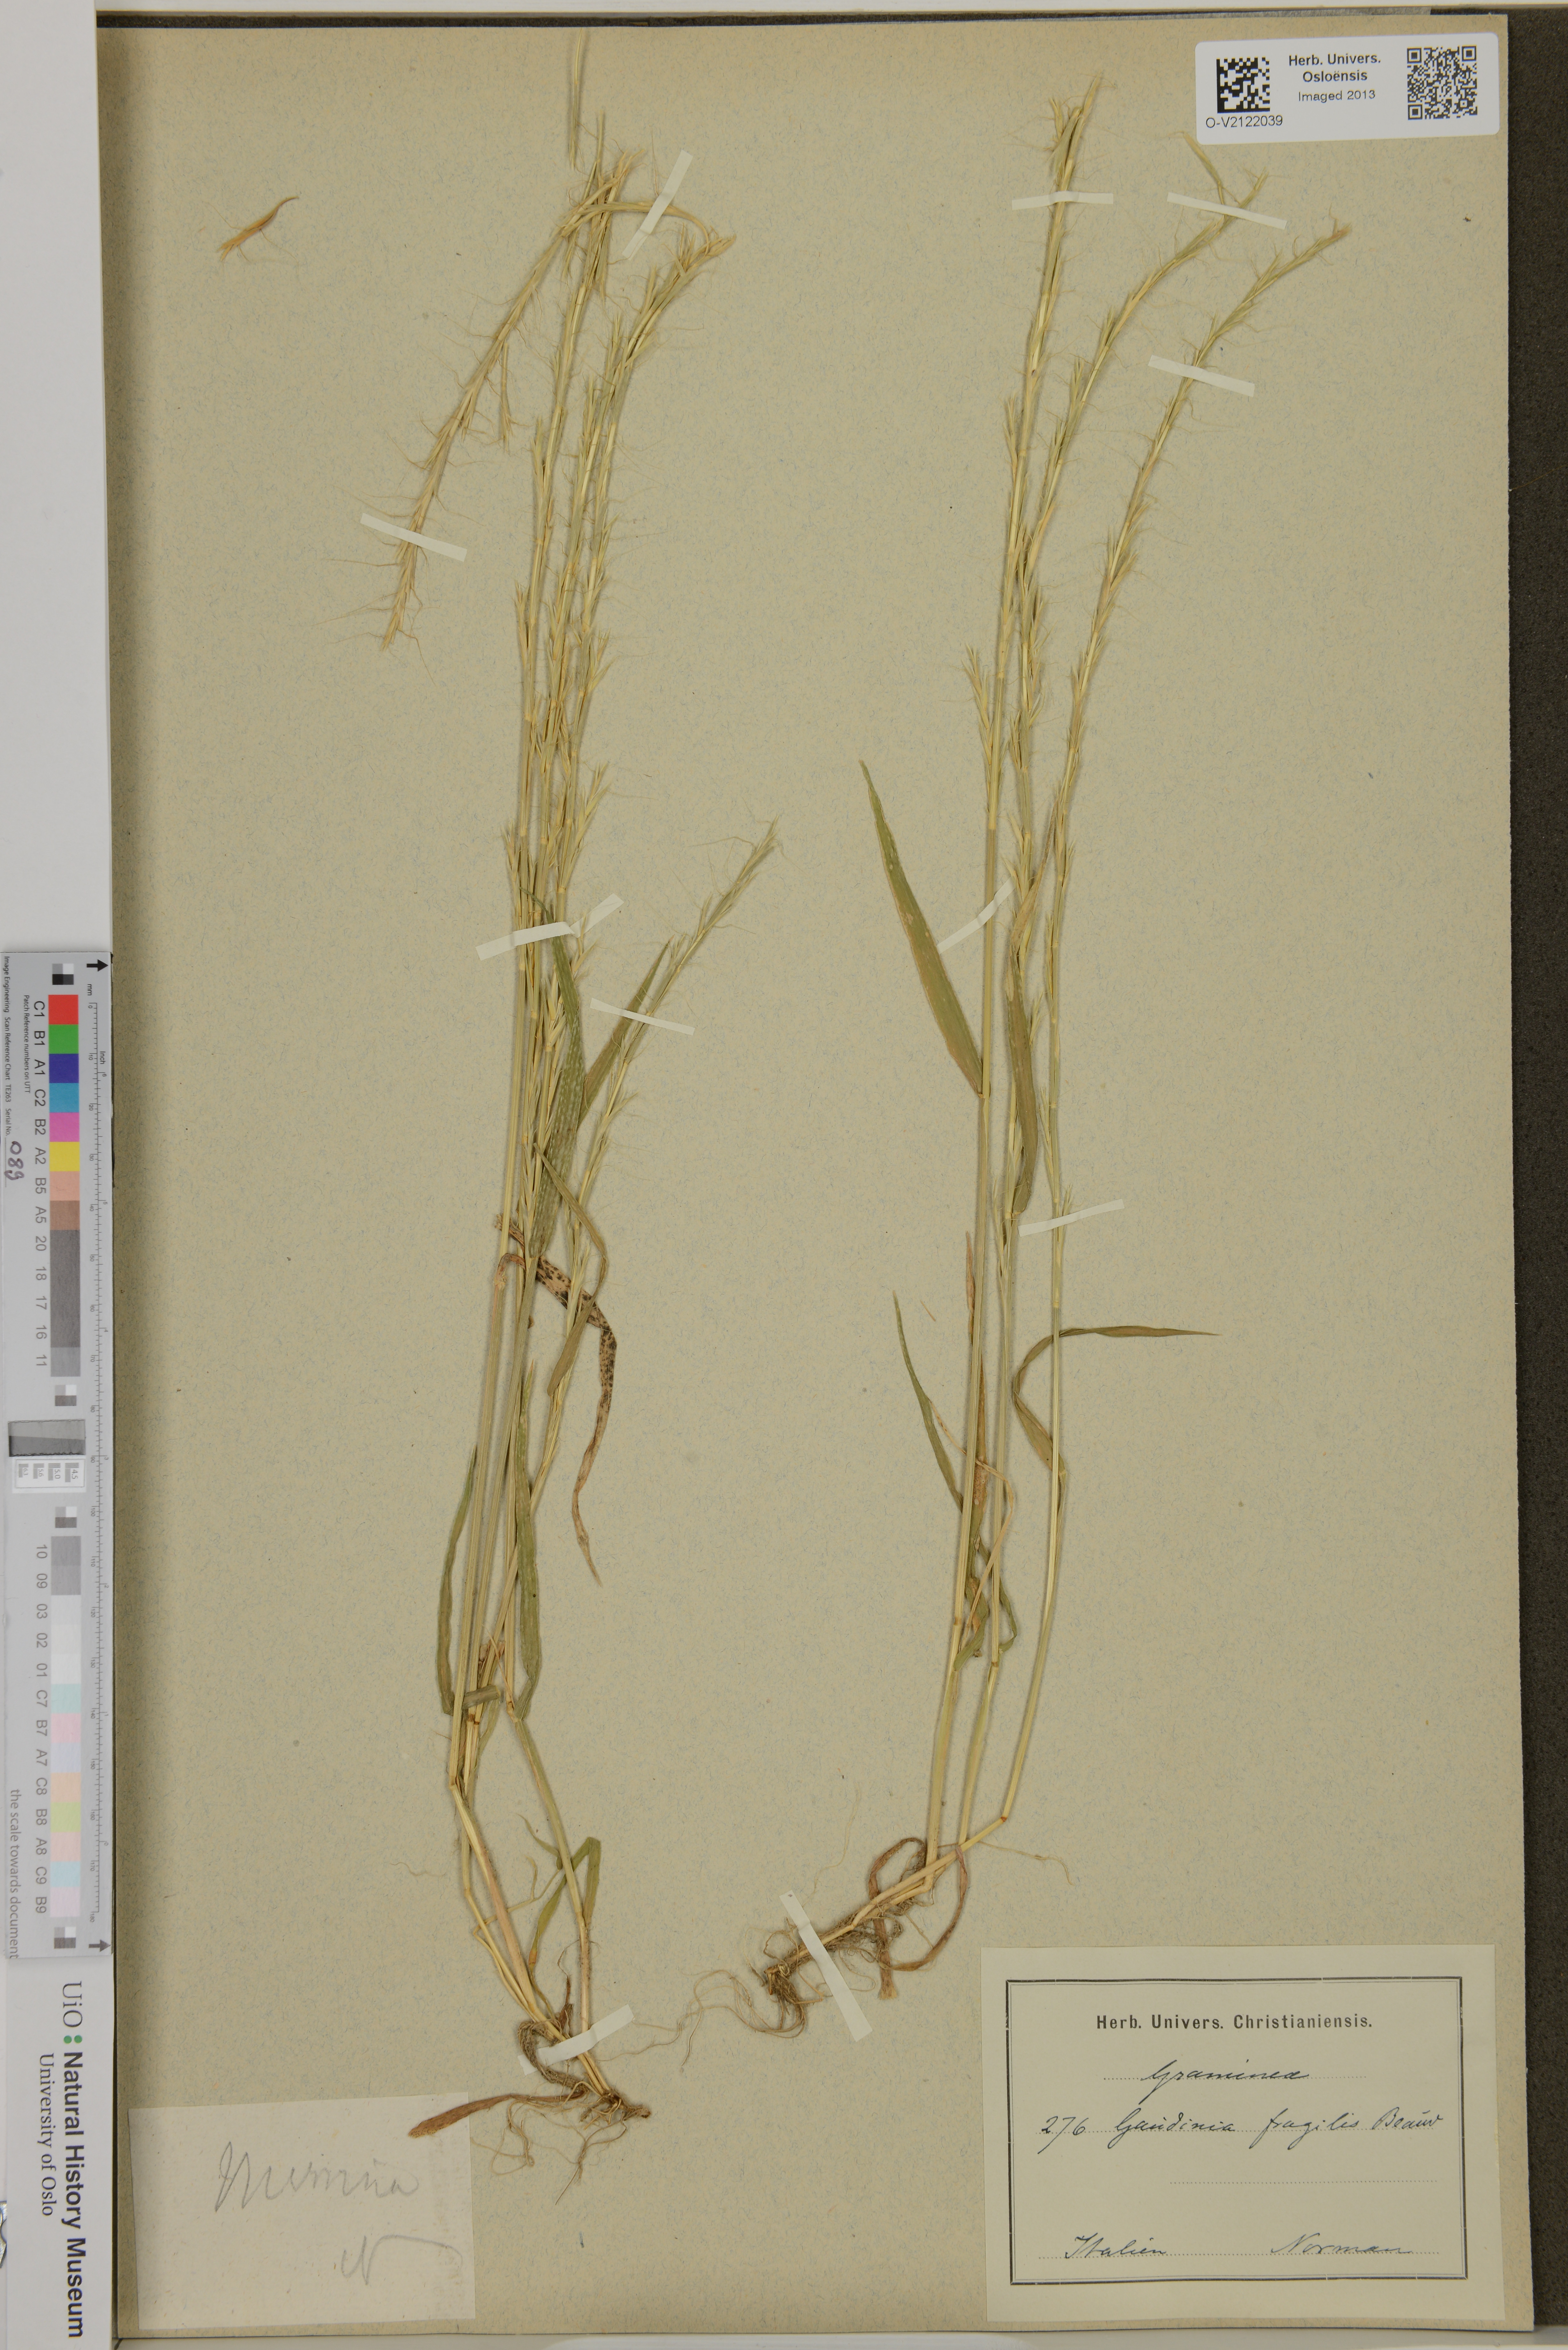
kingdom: Plantae
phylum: Tracheophyta
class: Liliopsida
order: Poales
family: Poaceae
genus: Gaudinia
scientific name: Gaudinia fragilis
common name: French oat-grass
